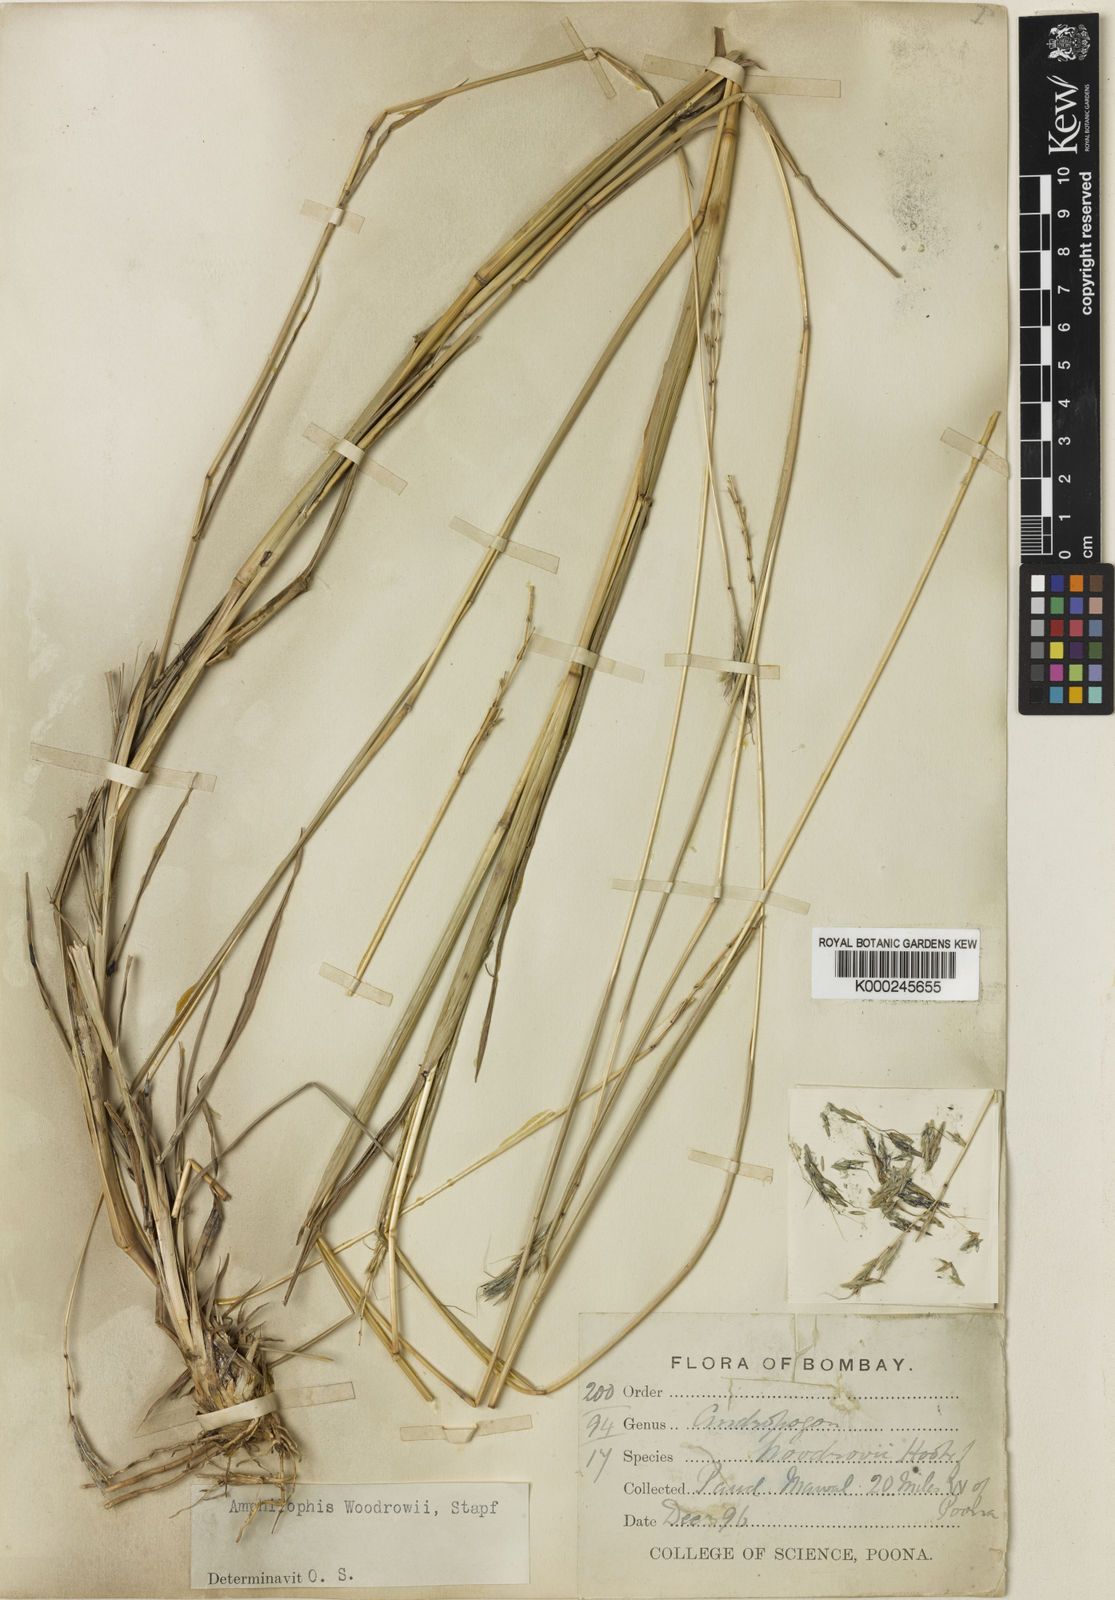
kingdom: Plantae
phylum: Tracheophyta
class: Liliopsida
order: Poales
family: Poaceae
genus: Bothriochloa
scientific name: Bothriochloa woodrovii
